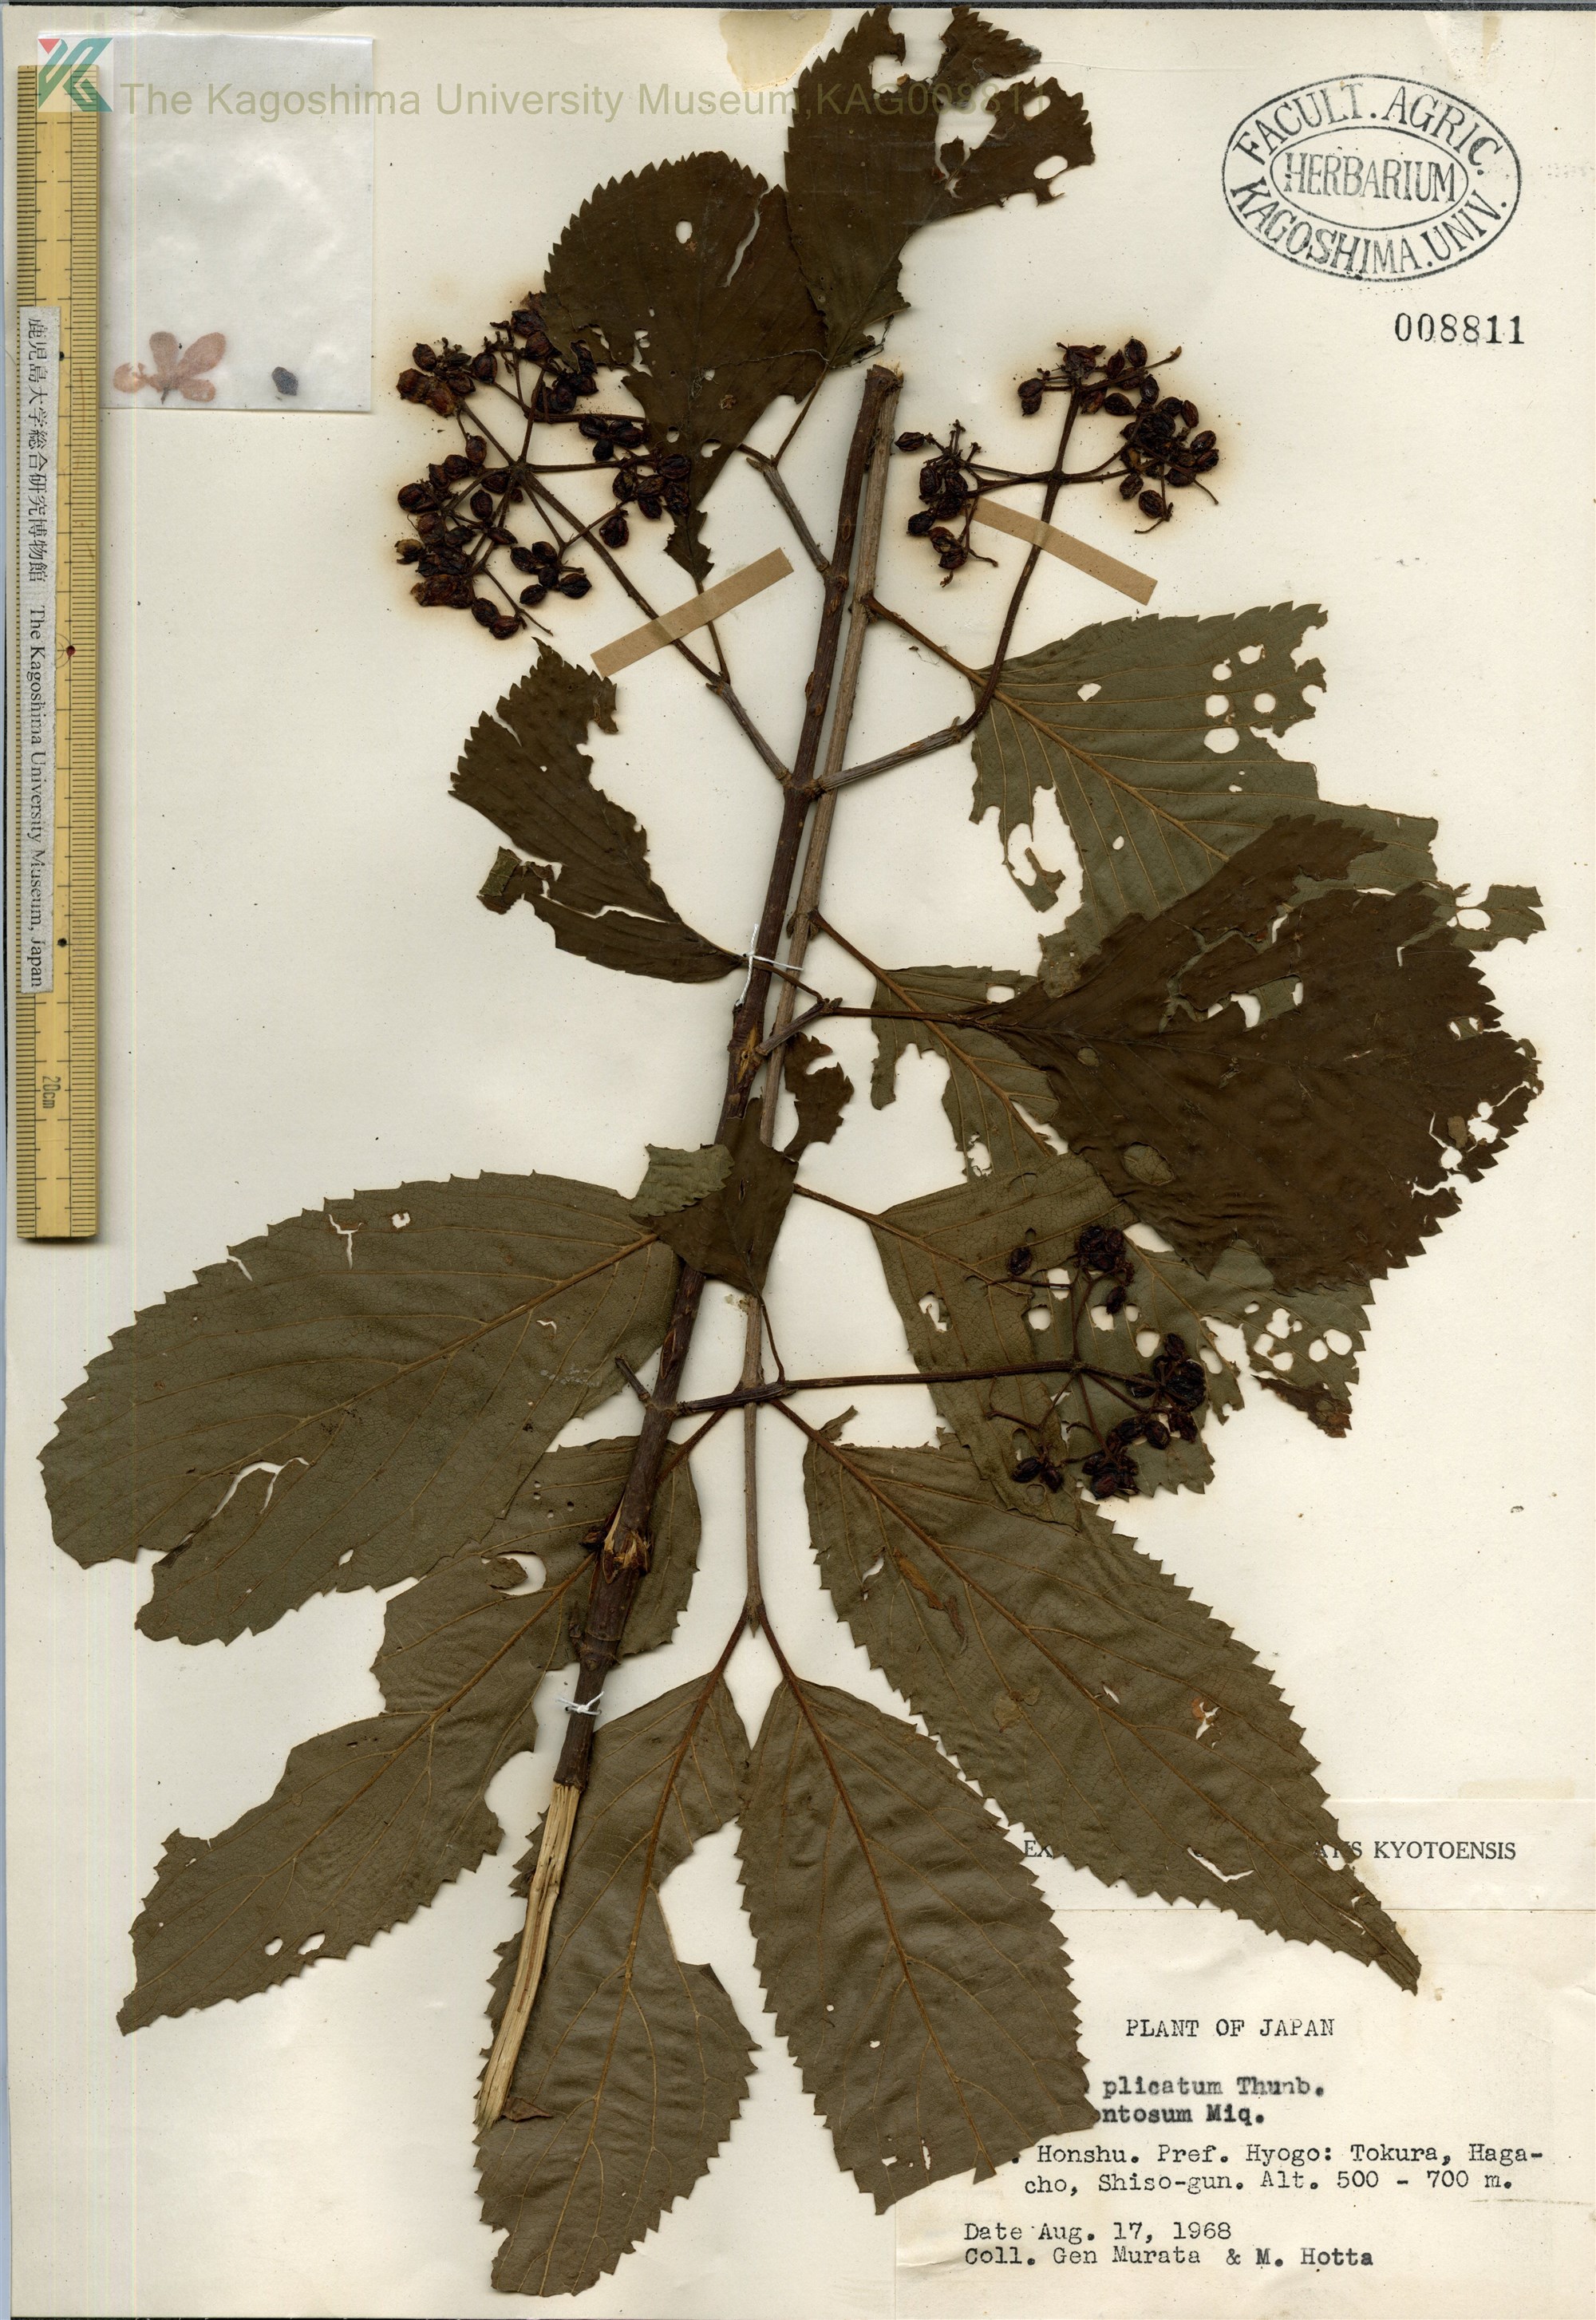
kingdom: Plantae
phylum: Tracheophyta
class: Magnoliopsida
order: Dipsacales
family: Viburnaceae
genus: Viburnum
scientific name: Viburnum plicatum
